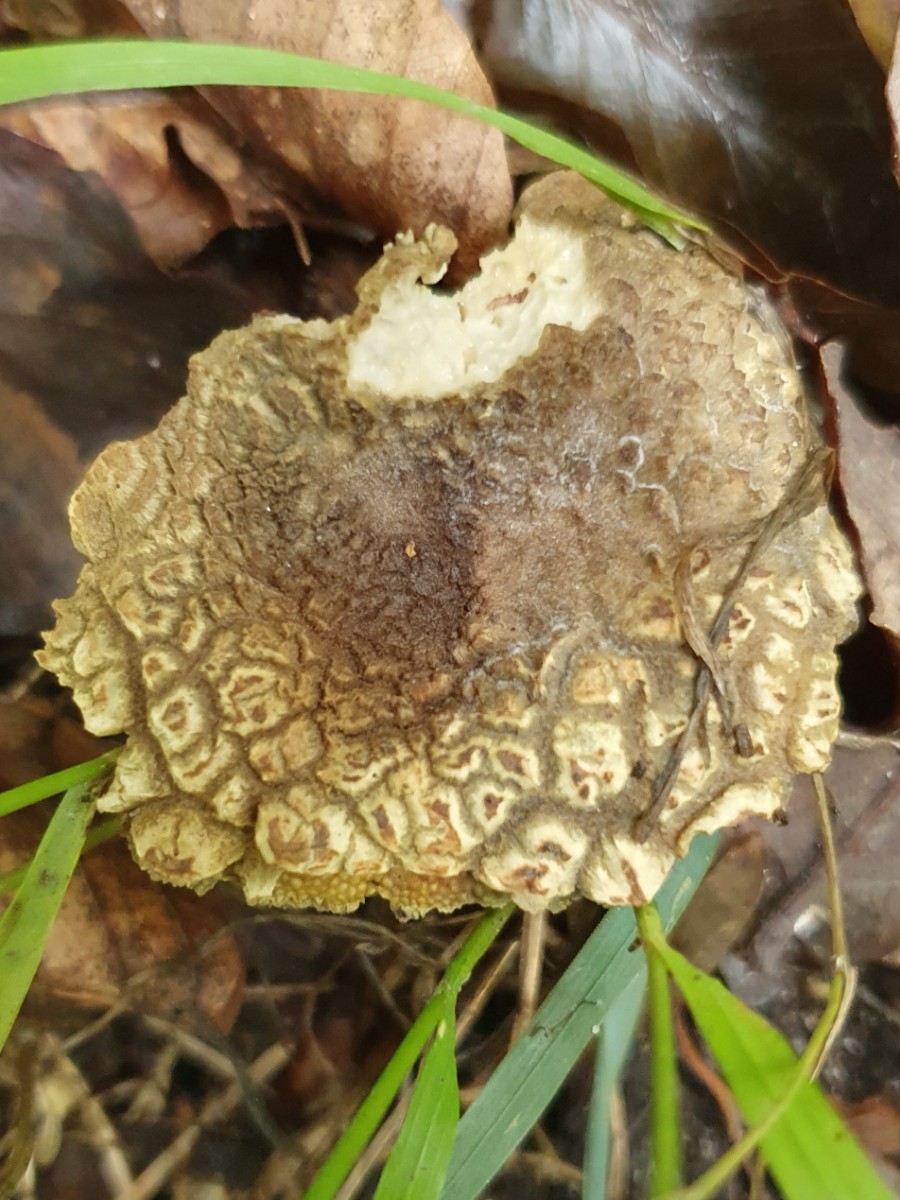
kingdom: Fungi
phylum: Basidiomycota
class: Agaricomycetes
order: Boletales
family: Boletaceae
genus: Xerocomellus
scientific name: Xerocomellus porosporus
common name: hvidsprukken rørhat
